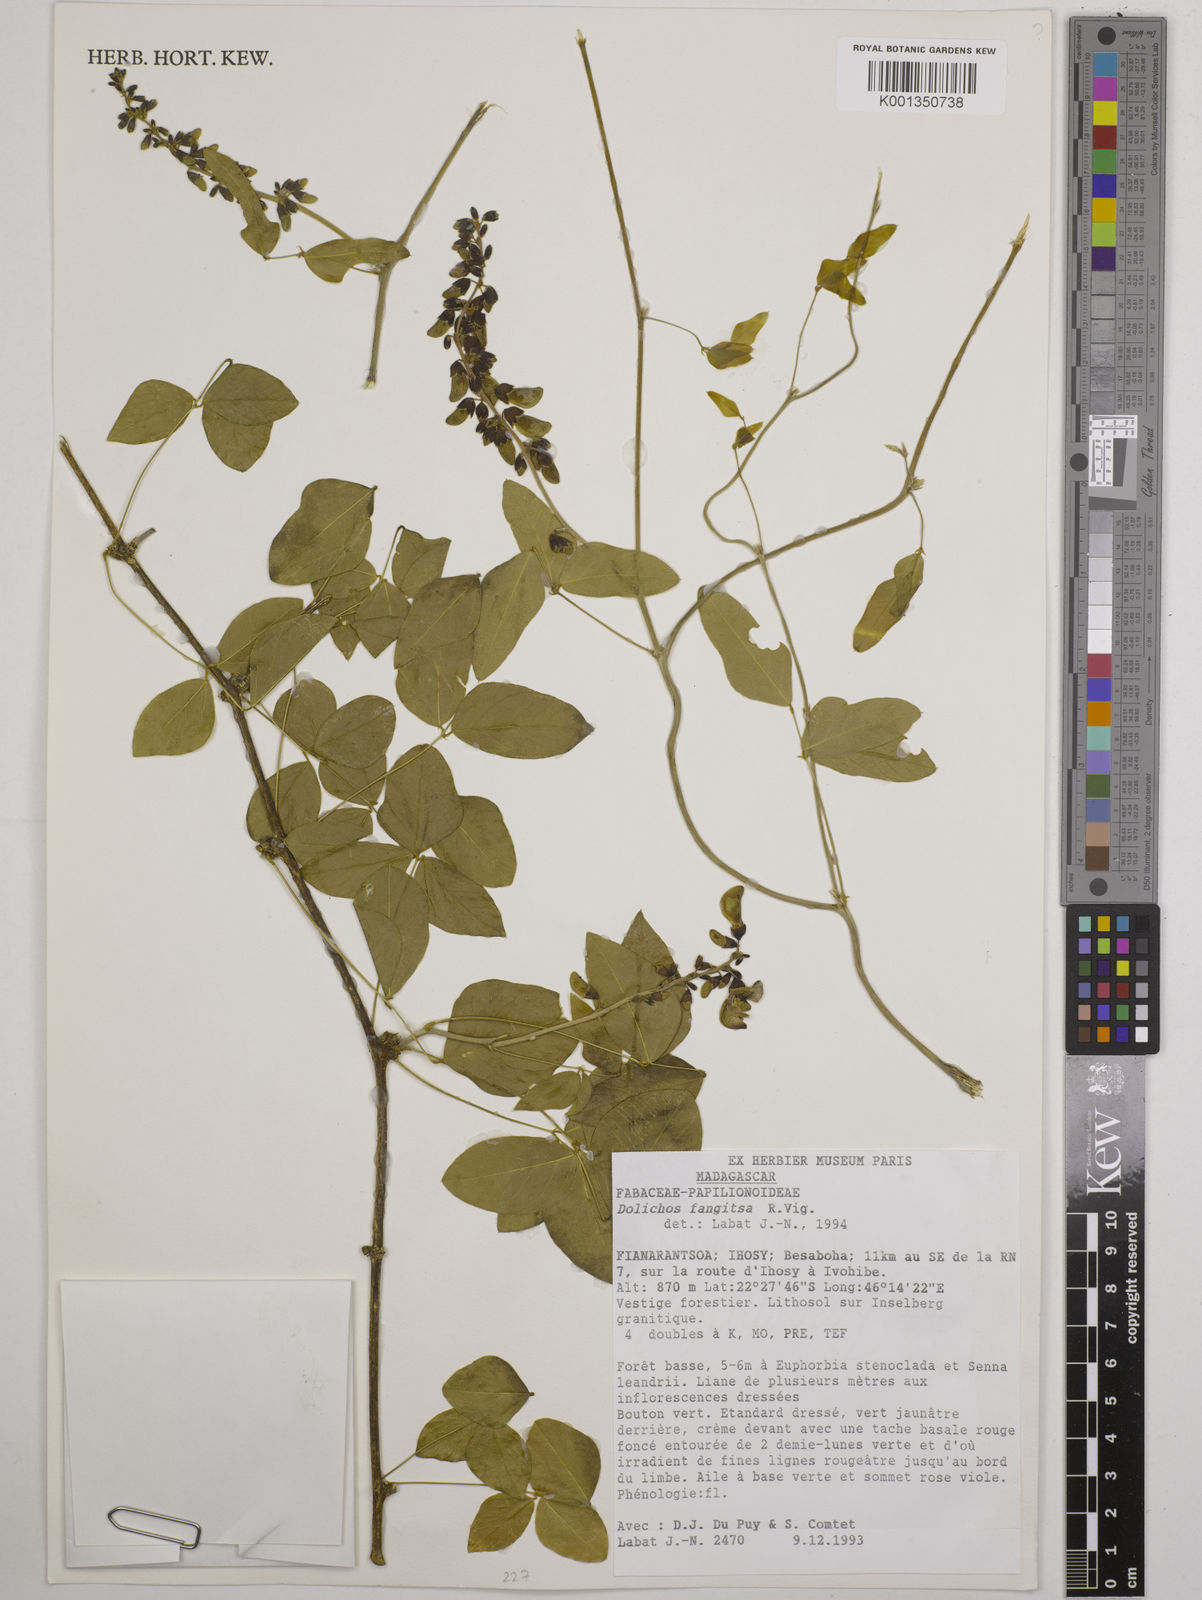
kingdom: Plantae
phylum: Tracheophyta
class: Magnoliopsida
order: Fabales
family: Fabaceae
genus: Dolichos
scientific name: Dolichos fangitsa
